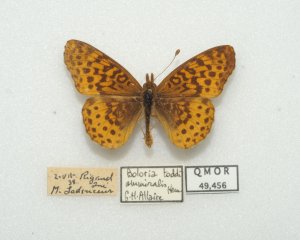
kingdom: Animalia
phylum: Arthropoda
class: Insecta
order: Lepidoptera
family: Nymphalidae
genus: Clossiana
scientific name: Clossiana toddi
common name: Meadow Fritillary
